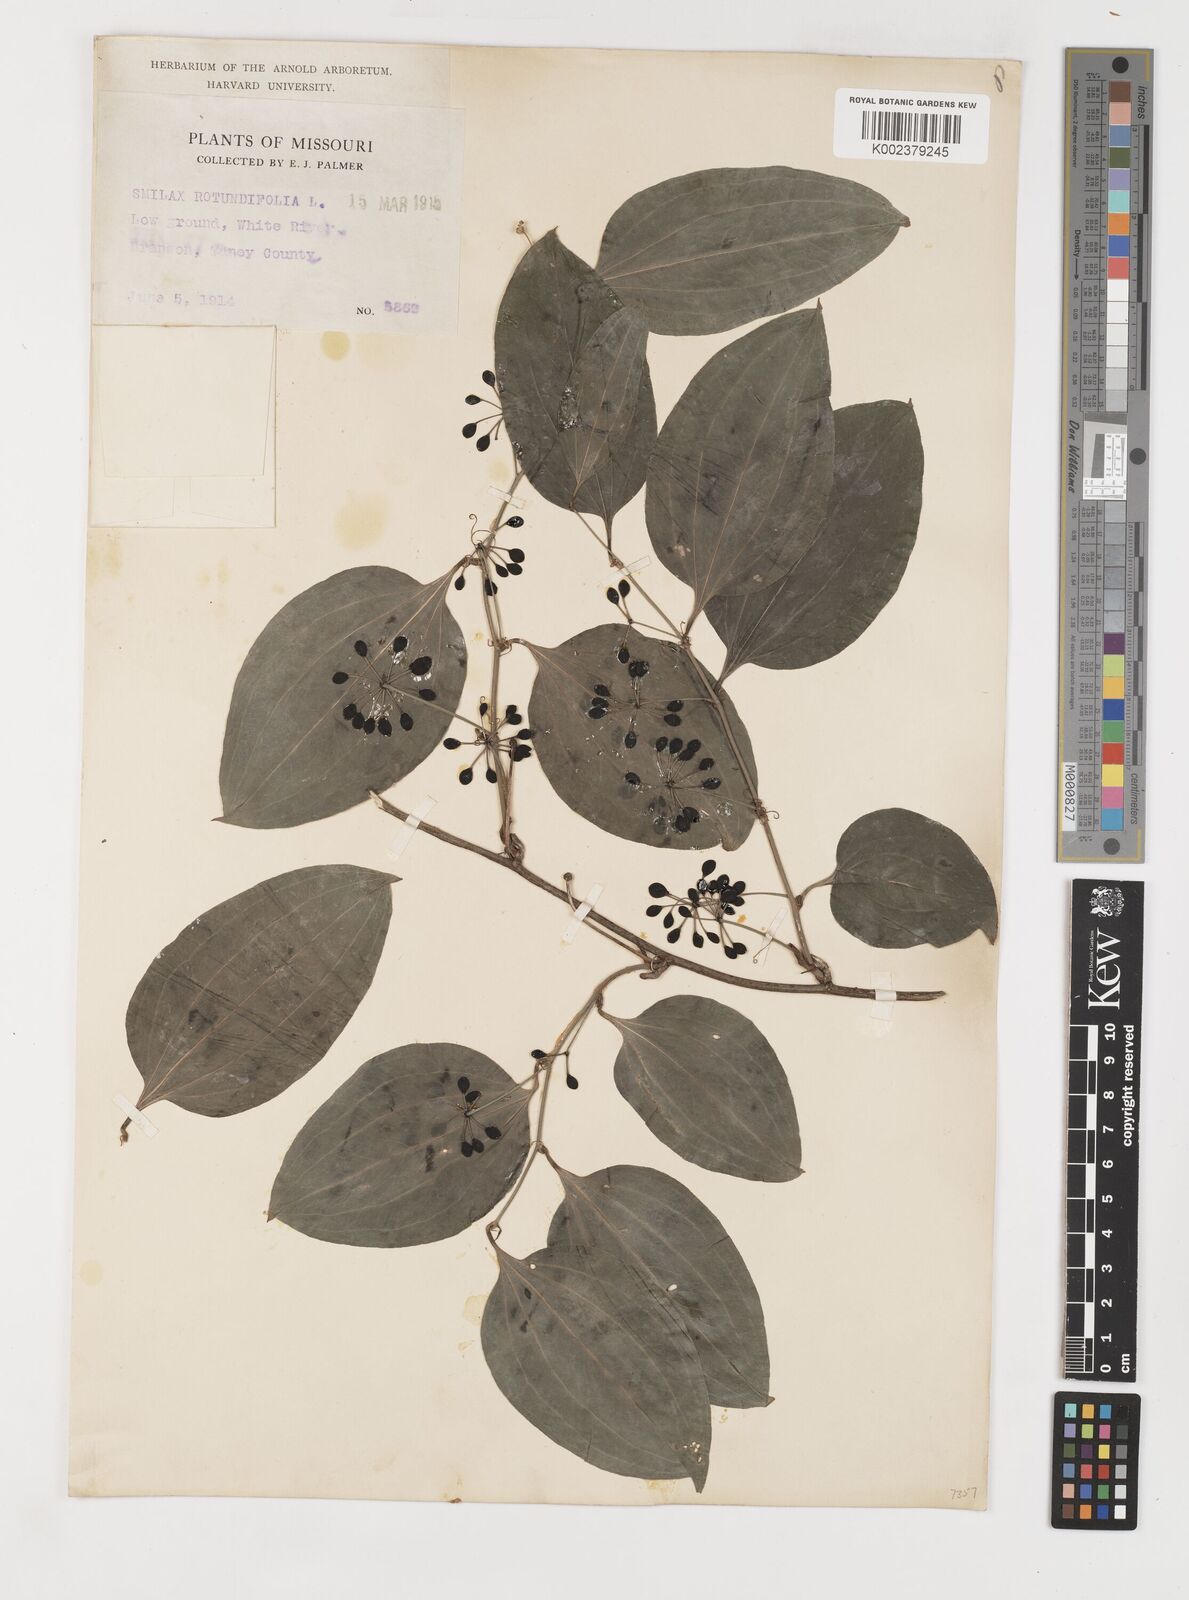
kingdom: Plantae
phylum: Tracheophyta
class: Liliopsida
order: Liliales
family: Smilacaceae
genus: Smilax
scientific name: Smilax rotundifolia
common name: Bullbriar
